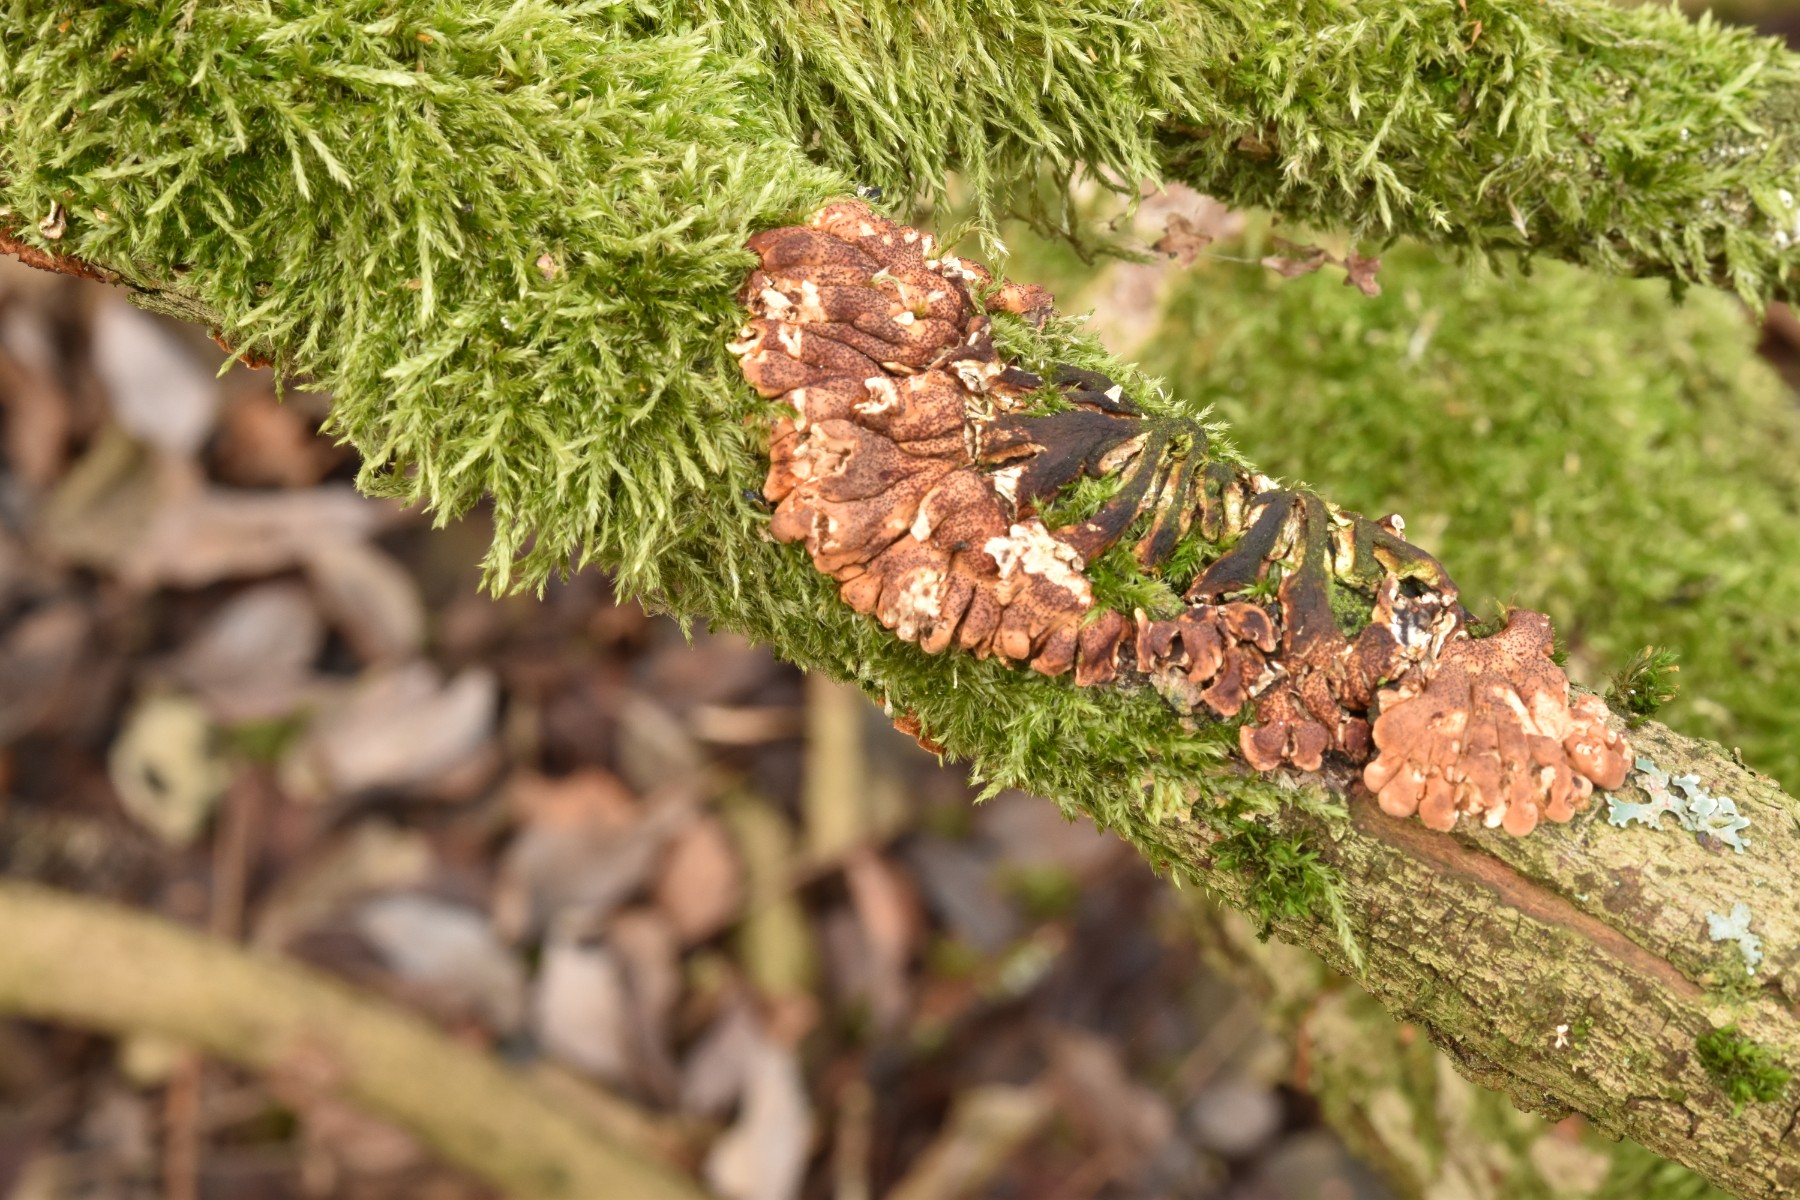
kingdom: Fungi
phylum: Ascomycota
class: Sordariomycetes
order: Hypocreales
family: Hypocreaceae
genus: Hypocreopsis
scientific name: Hypocreopsis lichenoides
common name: pilfinger
